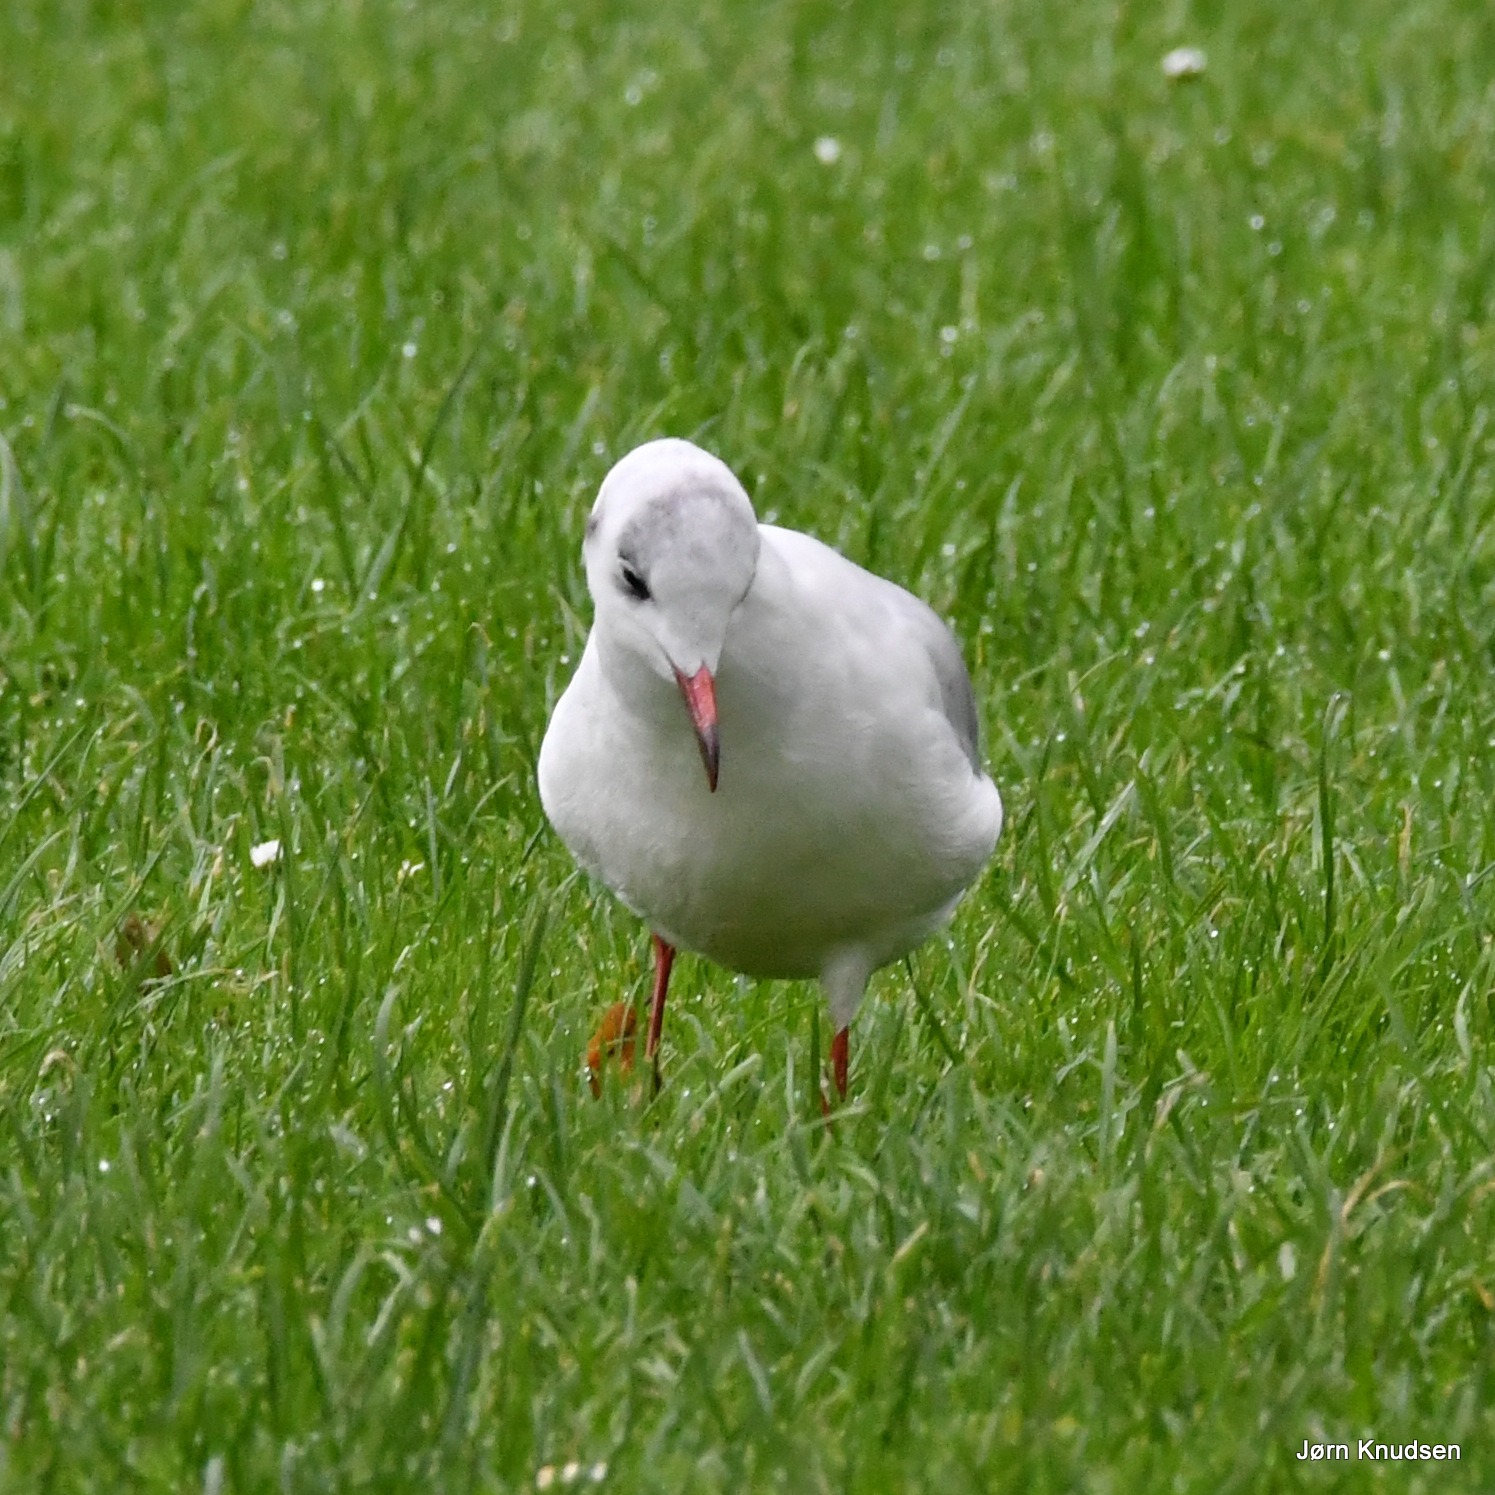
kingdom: Animalia
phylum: Chordata
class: Aves
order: Charadriiformes
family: Laridae
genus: Chroicocephalus
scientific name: Chroicocephalus ridibundus
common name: Hættemåge
